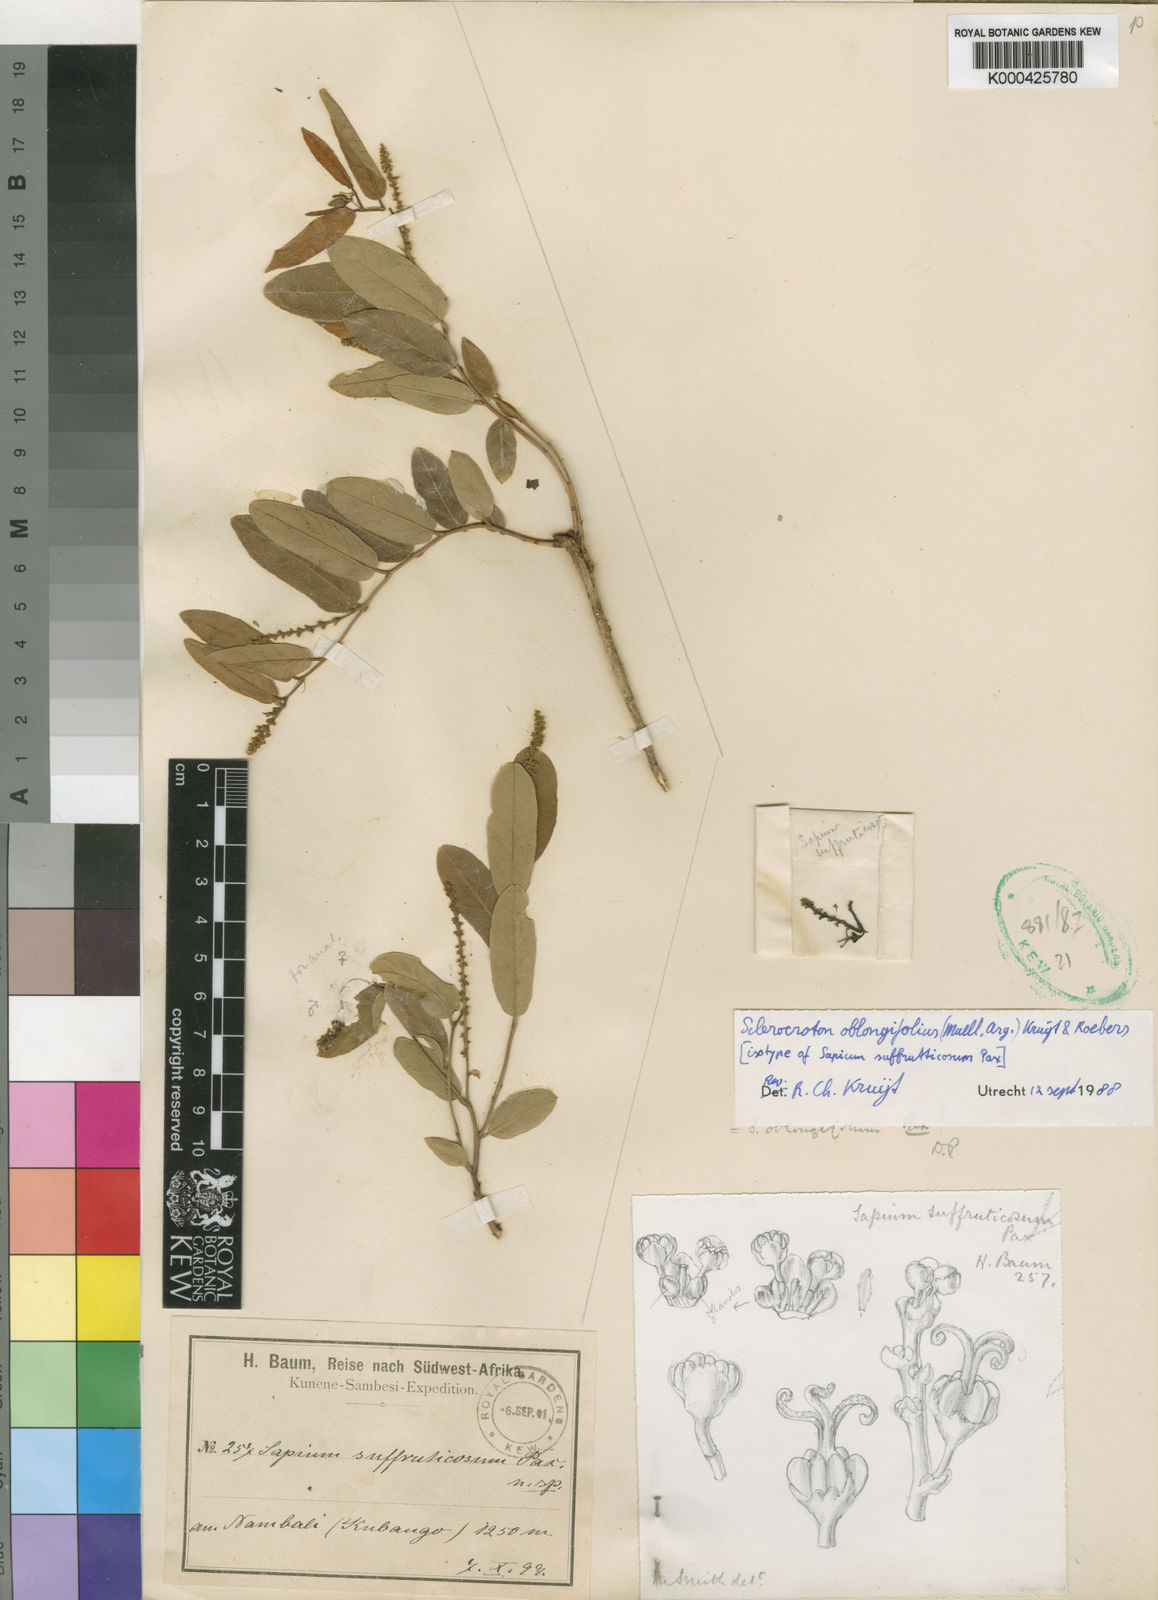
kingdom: Plantae
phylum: Tracheophyta
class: Magnoliopsida
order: Malpighiales
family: Euphorbiaceae
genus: Sapium
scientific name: Sapium
